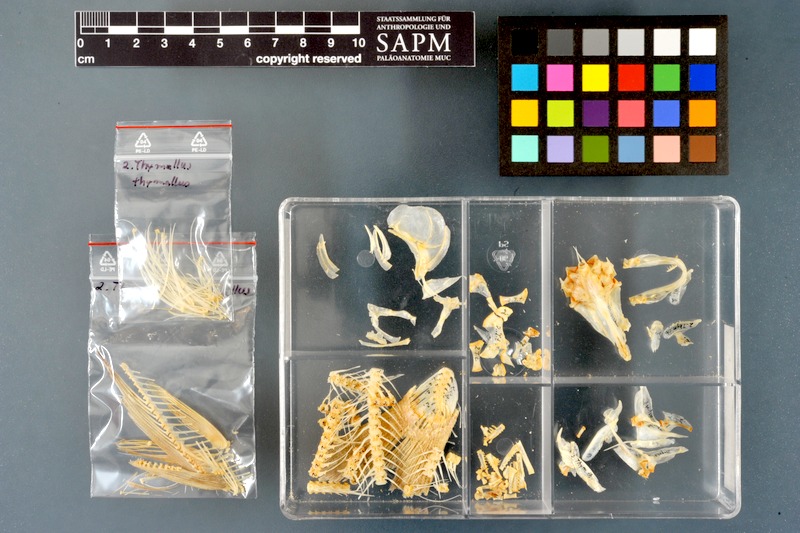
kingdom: Animalia
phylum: Chordata
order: Salmoniformes
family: Salmonidae
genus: Thymallus
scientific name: Thymallus thymallus
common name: Grayling
